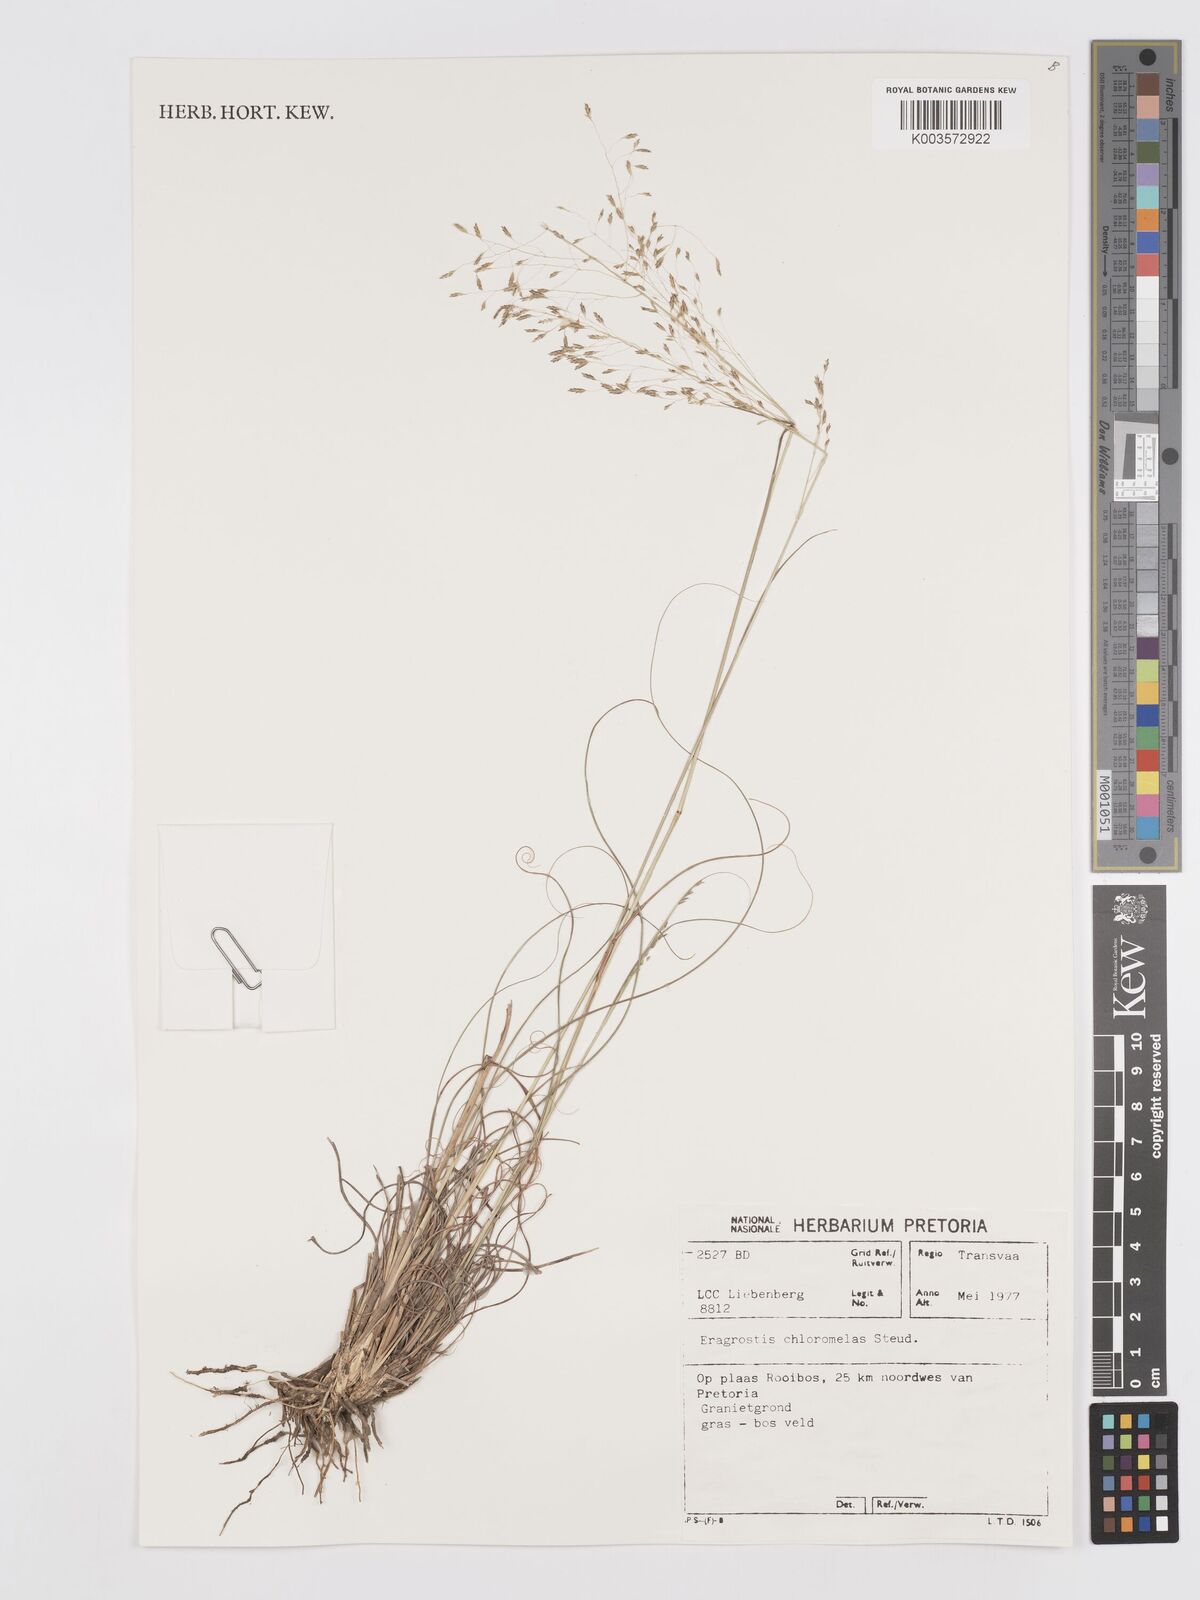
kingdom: Plantae
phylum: Tracheophyta
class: Liliopsida
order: Poales
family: Poaceae
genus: Eragrostis
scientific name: Eragrostis curvula
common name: African love-grass
